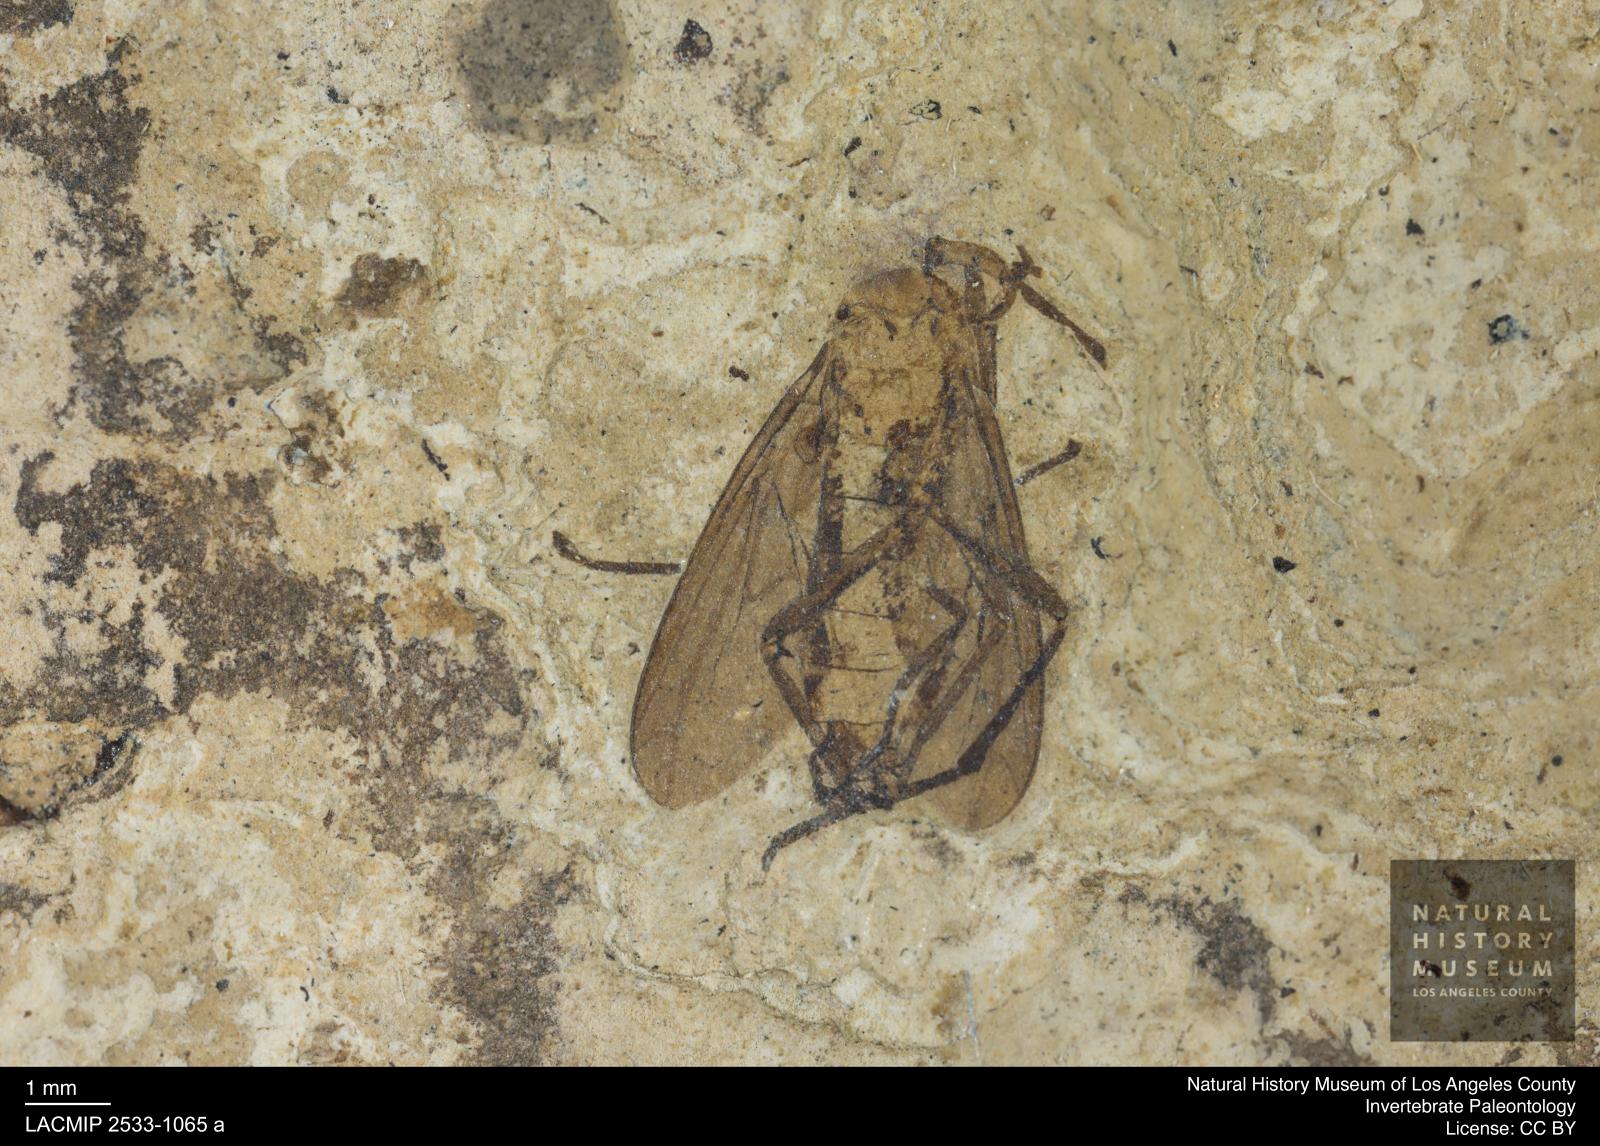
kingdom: Animalia
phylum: Arthropoda
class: Insecta
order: Diptera
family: Bibionidae
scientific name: Bibionidae
